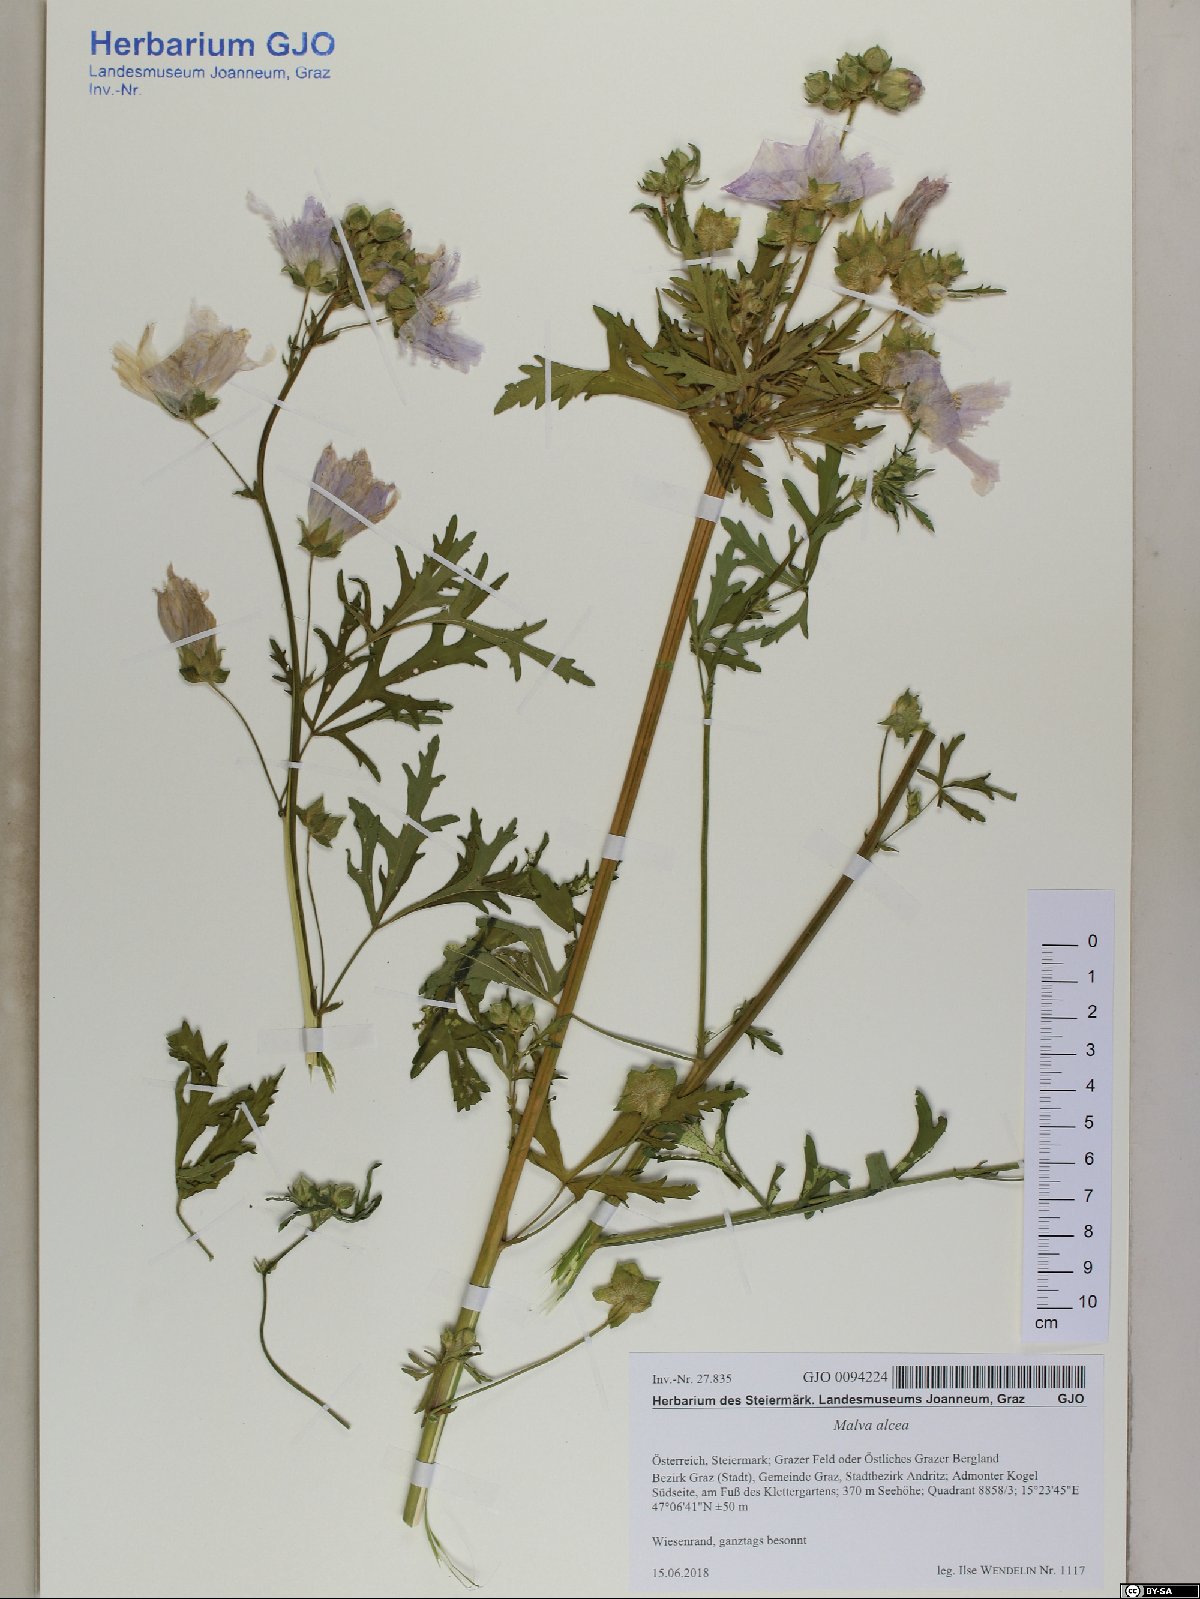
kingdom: Plantae
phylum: Tracheophyta
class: Magnoliopsida
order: Malvales
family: Malvaceae
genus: Malva
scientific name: Malva alcea
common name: Greater musk-mallow
